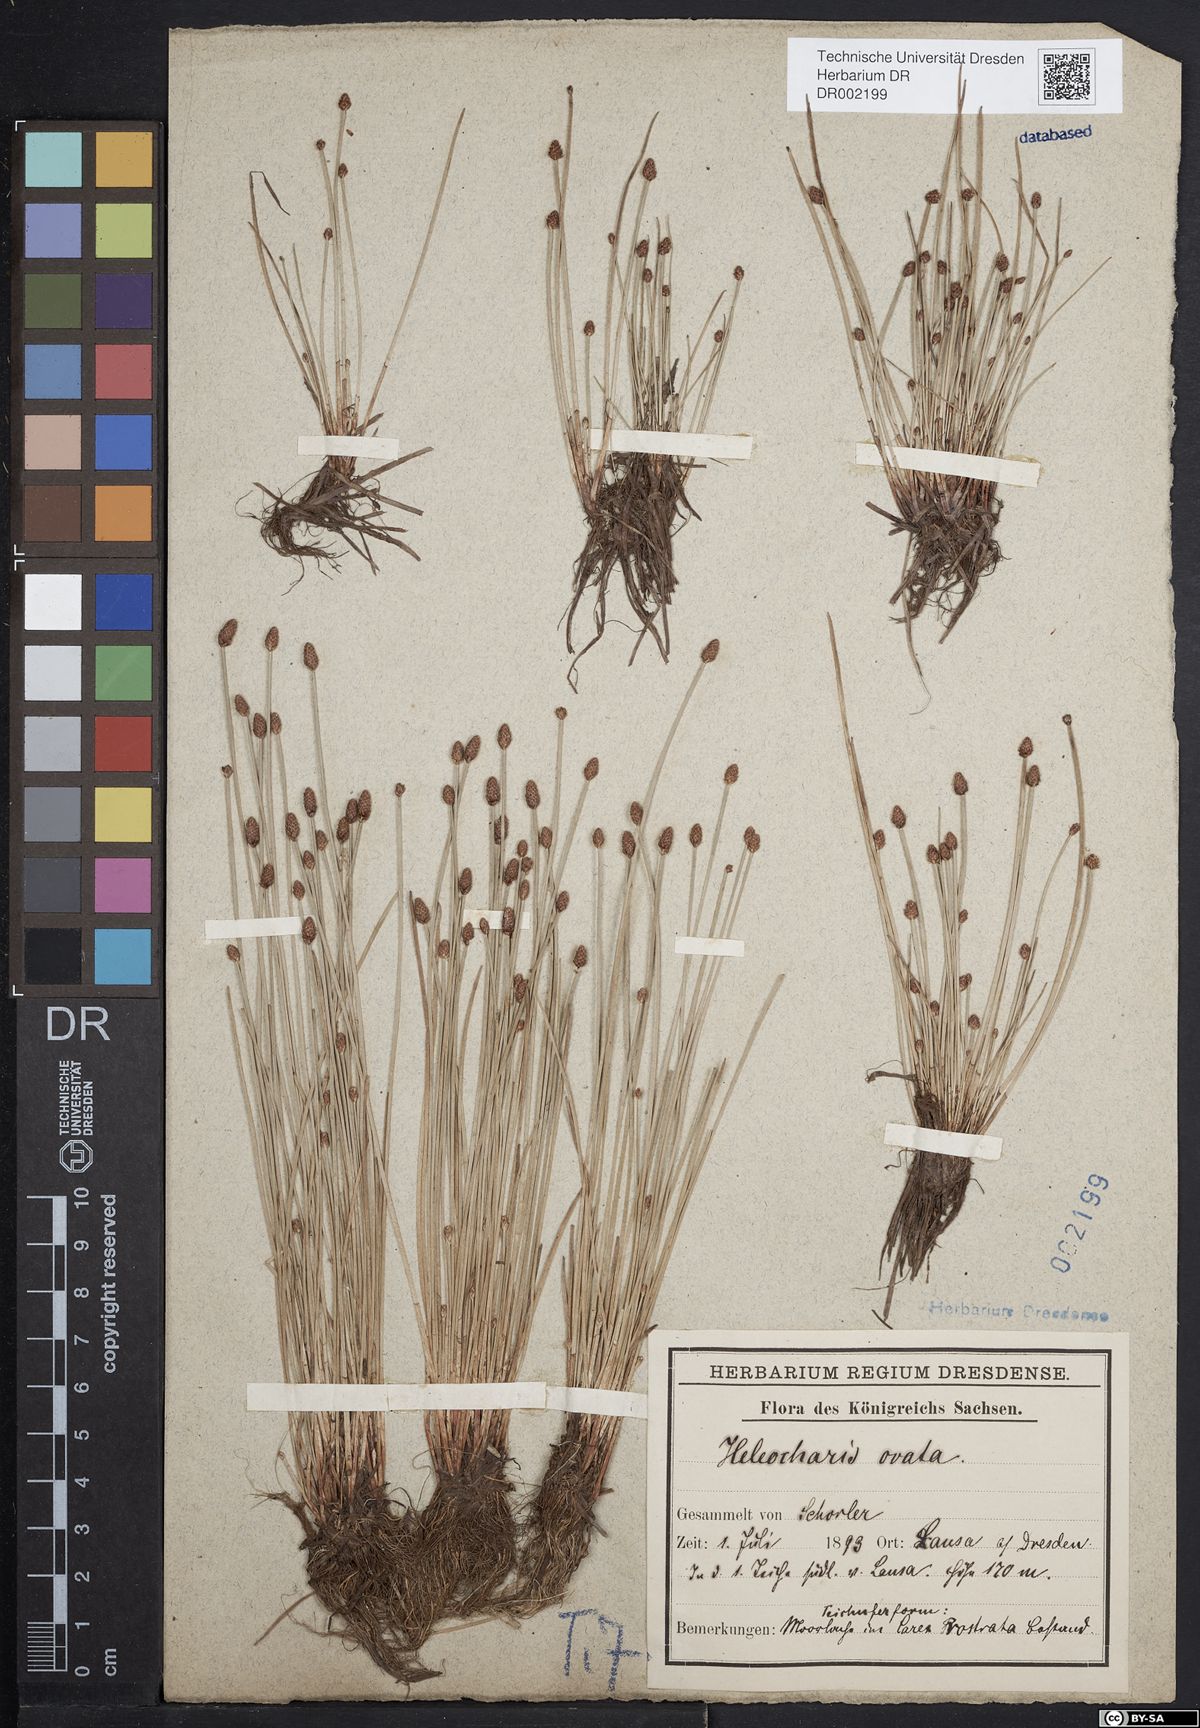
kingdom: Plantae
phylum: Tracheophyta
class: Liliopsida
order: Poales
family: Cyperaceae
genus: Eleocharis
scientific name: Eleocharis ovata
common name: Oval spike-rush
